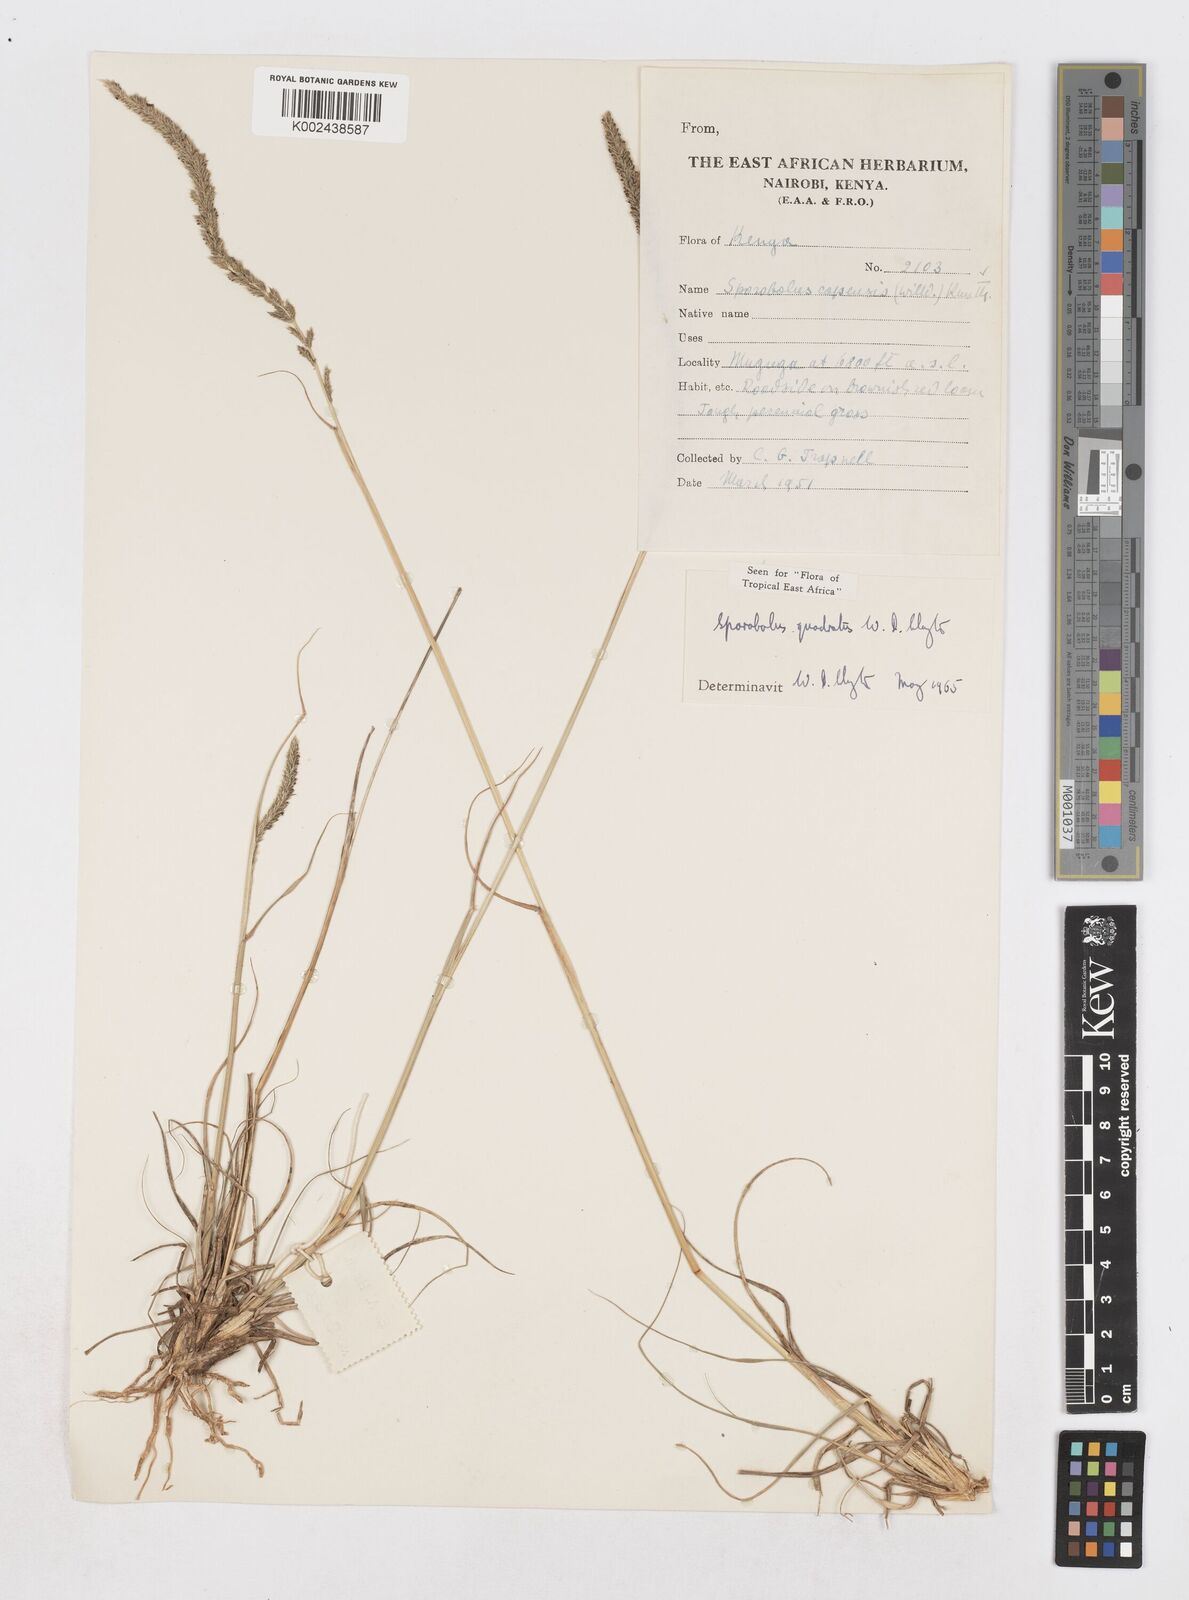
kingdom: Plantae
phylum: Tracheophyta
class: Liliopsida
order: Poales
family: Poaceae
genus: Sporobolus
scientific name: Sporobolus quadratus
